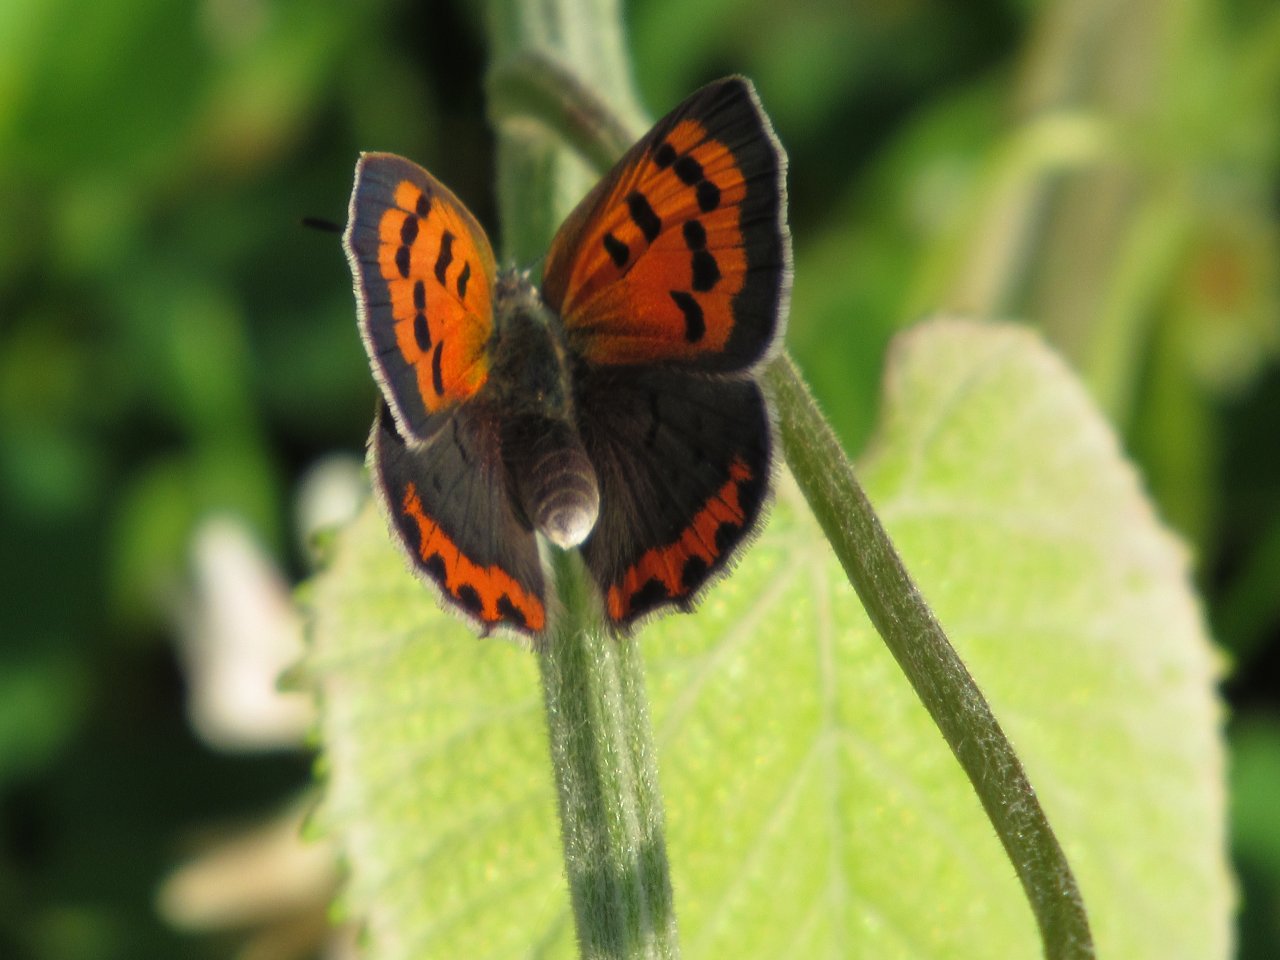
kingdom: Animalia
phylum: Arthropoda
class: Insecta
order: Lepidoptera
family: Lycaenidae
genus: Lycaena
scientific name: Lycaena phlaeas
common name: American Copper
